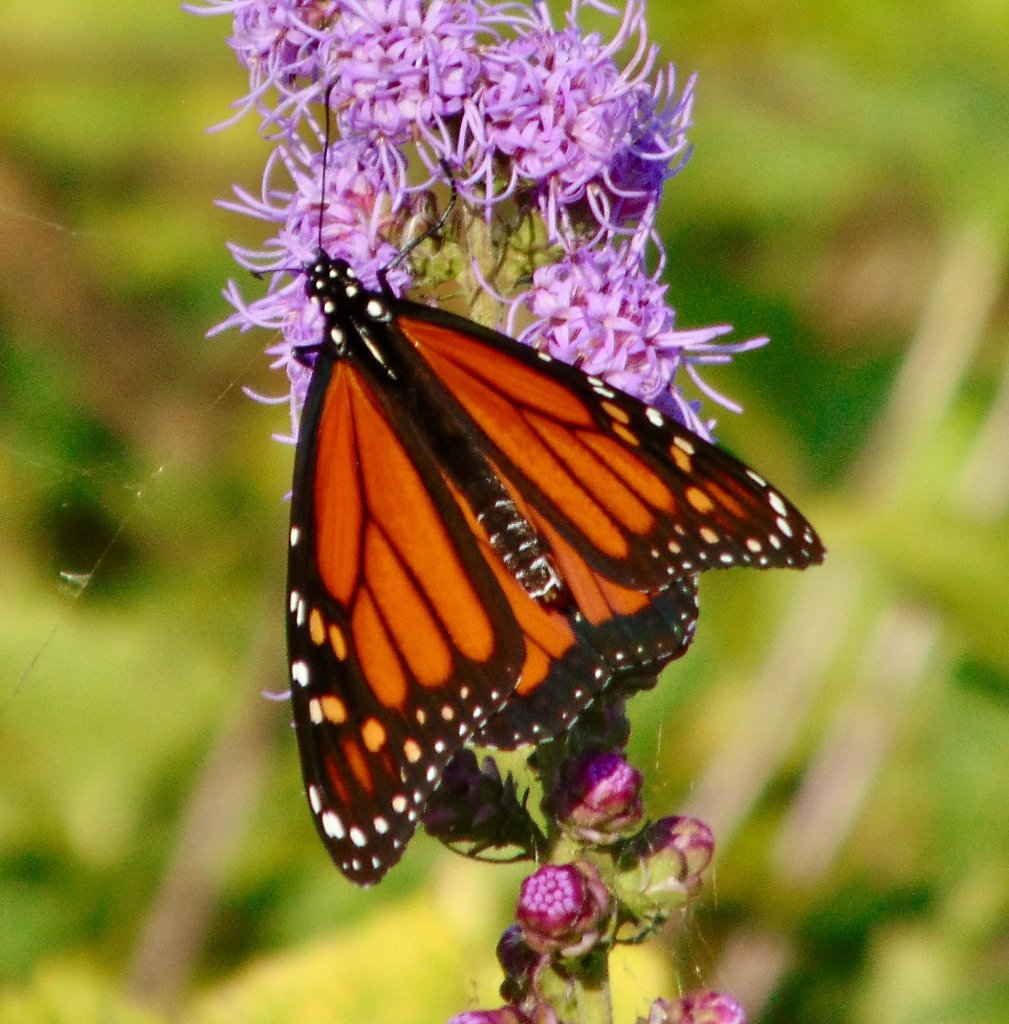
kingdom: Animalia
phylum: Arthropoda
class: Insecta
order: Lepidoptera
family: Nymphalidae
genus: Danaus
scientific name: Danaus plexippus
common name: Monarch
